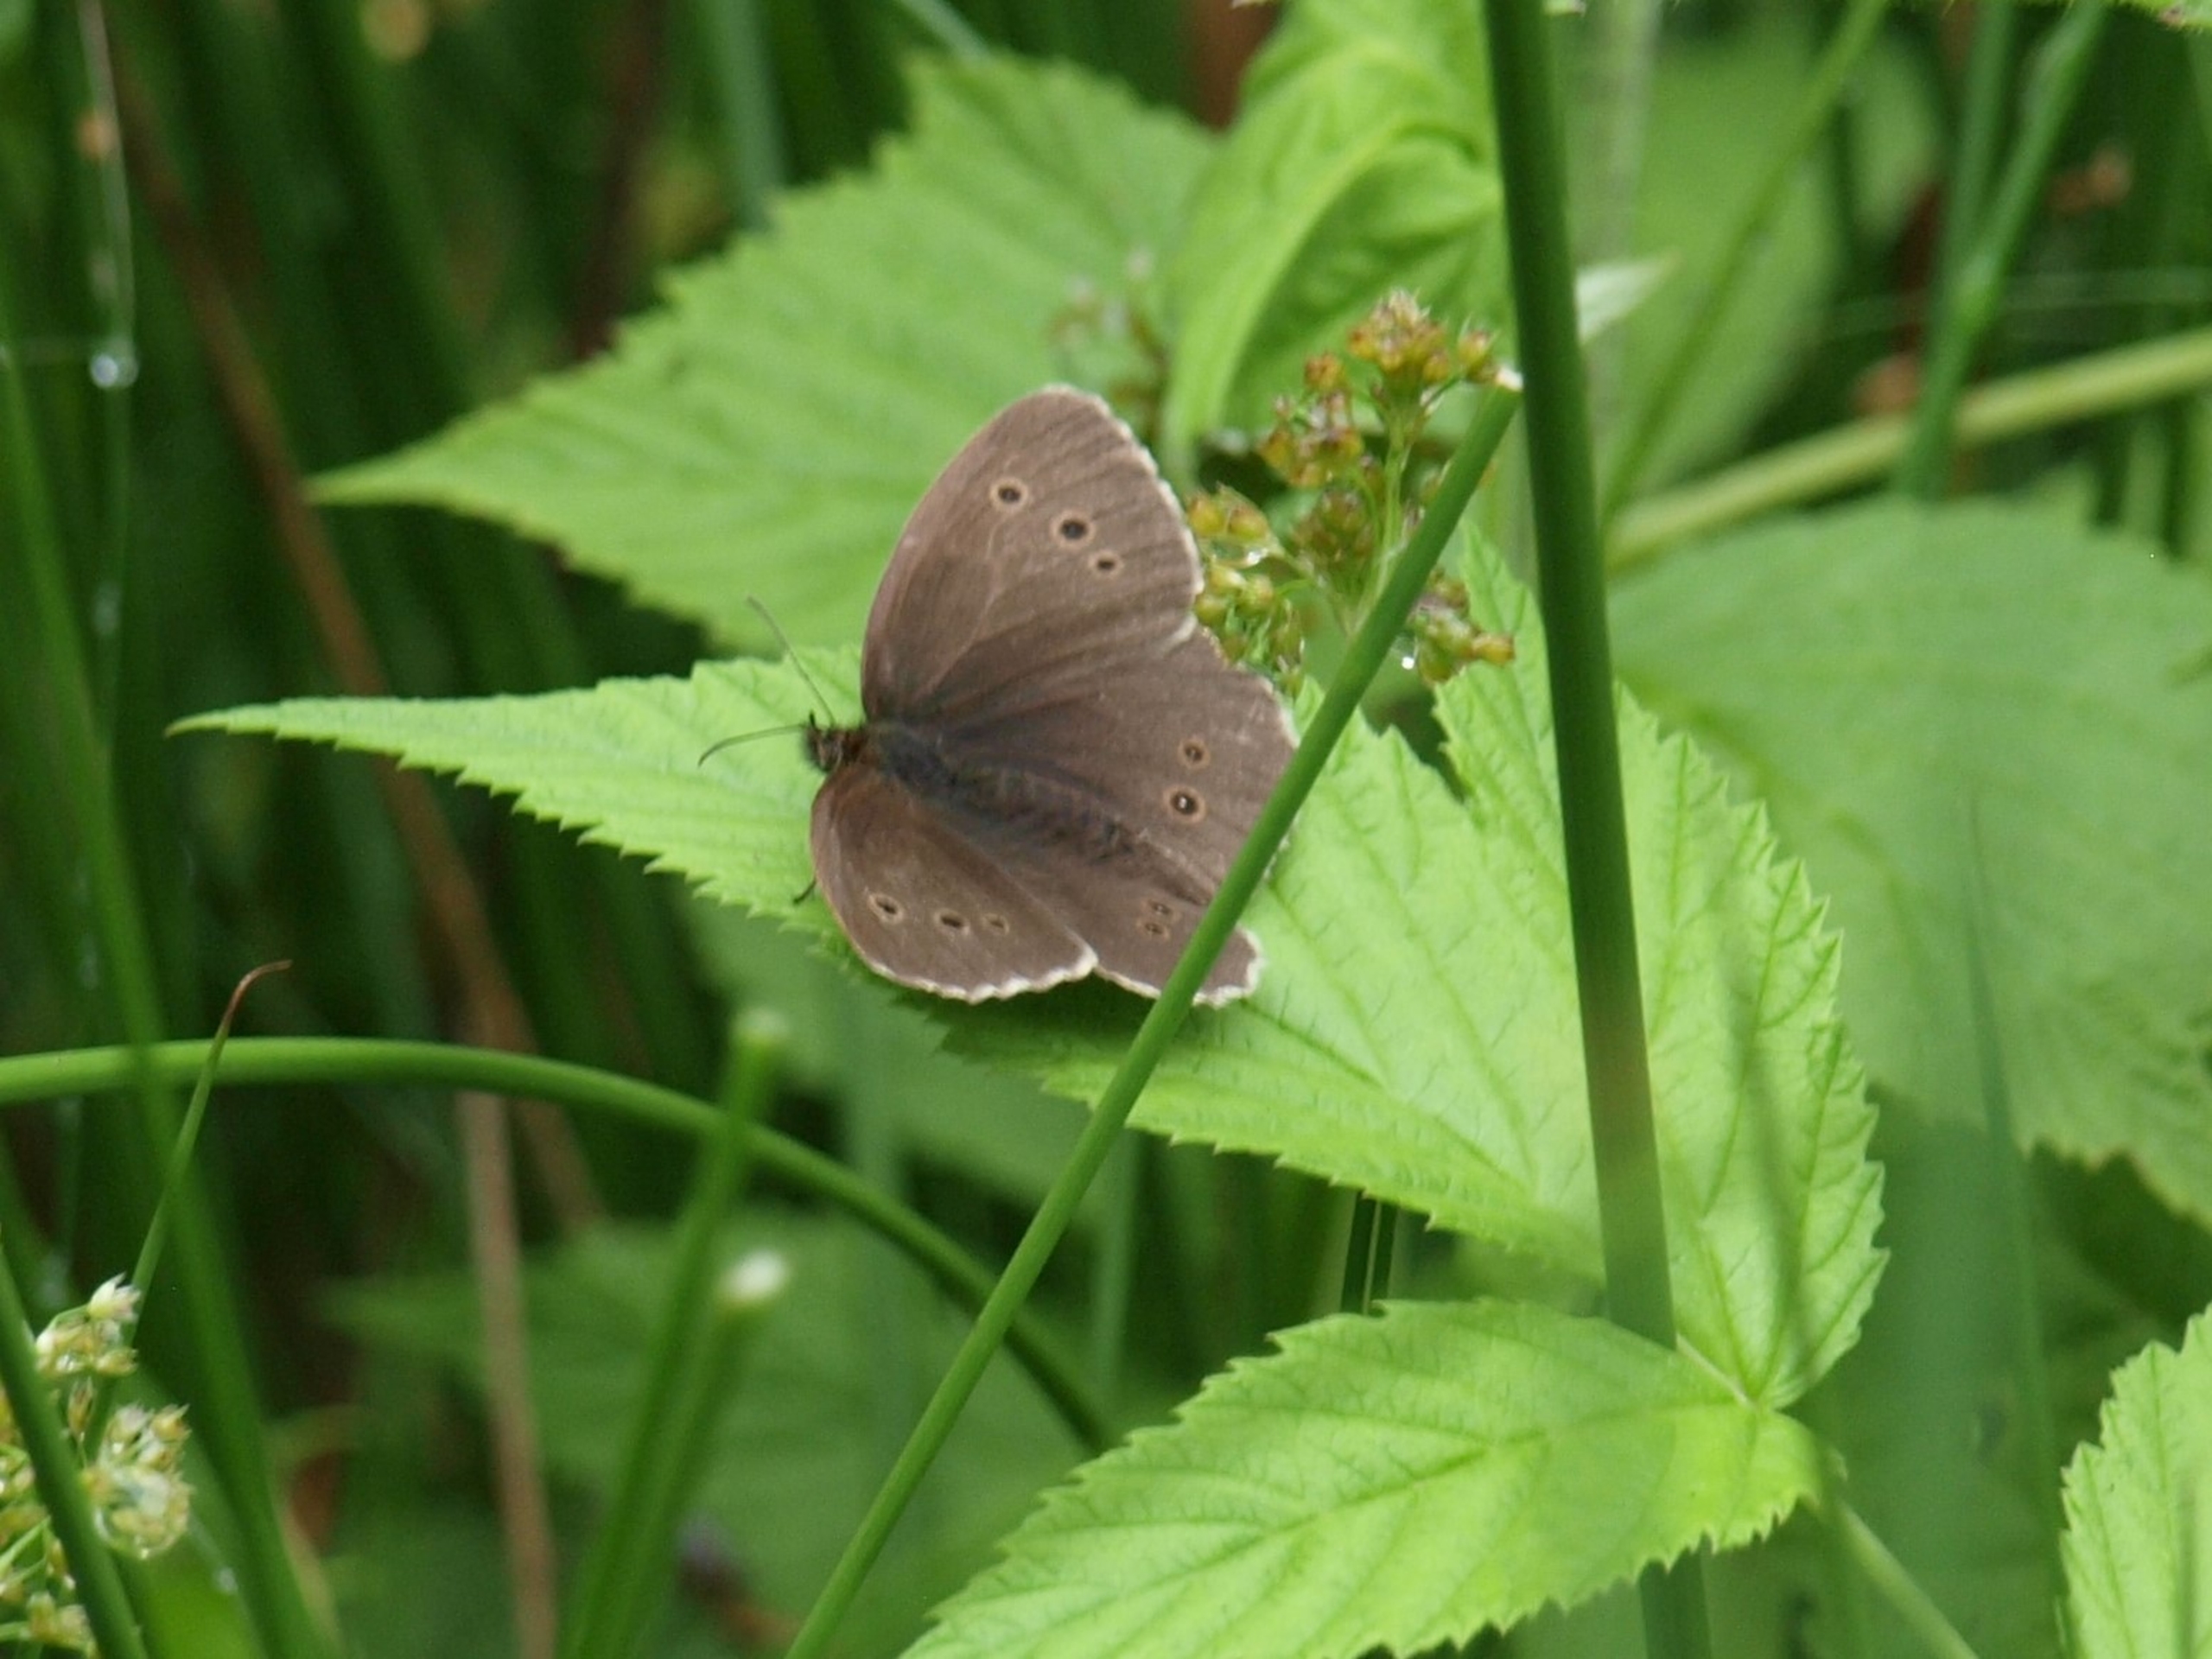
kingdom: Animalia
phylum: Arthropoda
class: Insecta
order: Lepidoptera
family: Nymphalidae
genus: Aphantopus
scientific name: Aphantopus hyperantus
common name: Engrandøje
